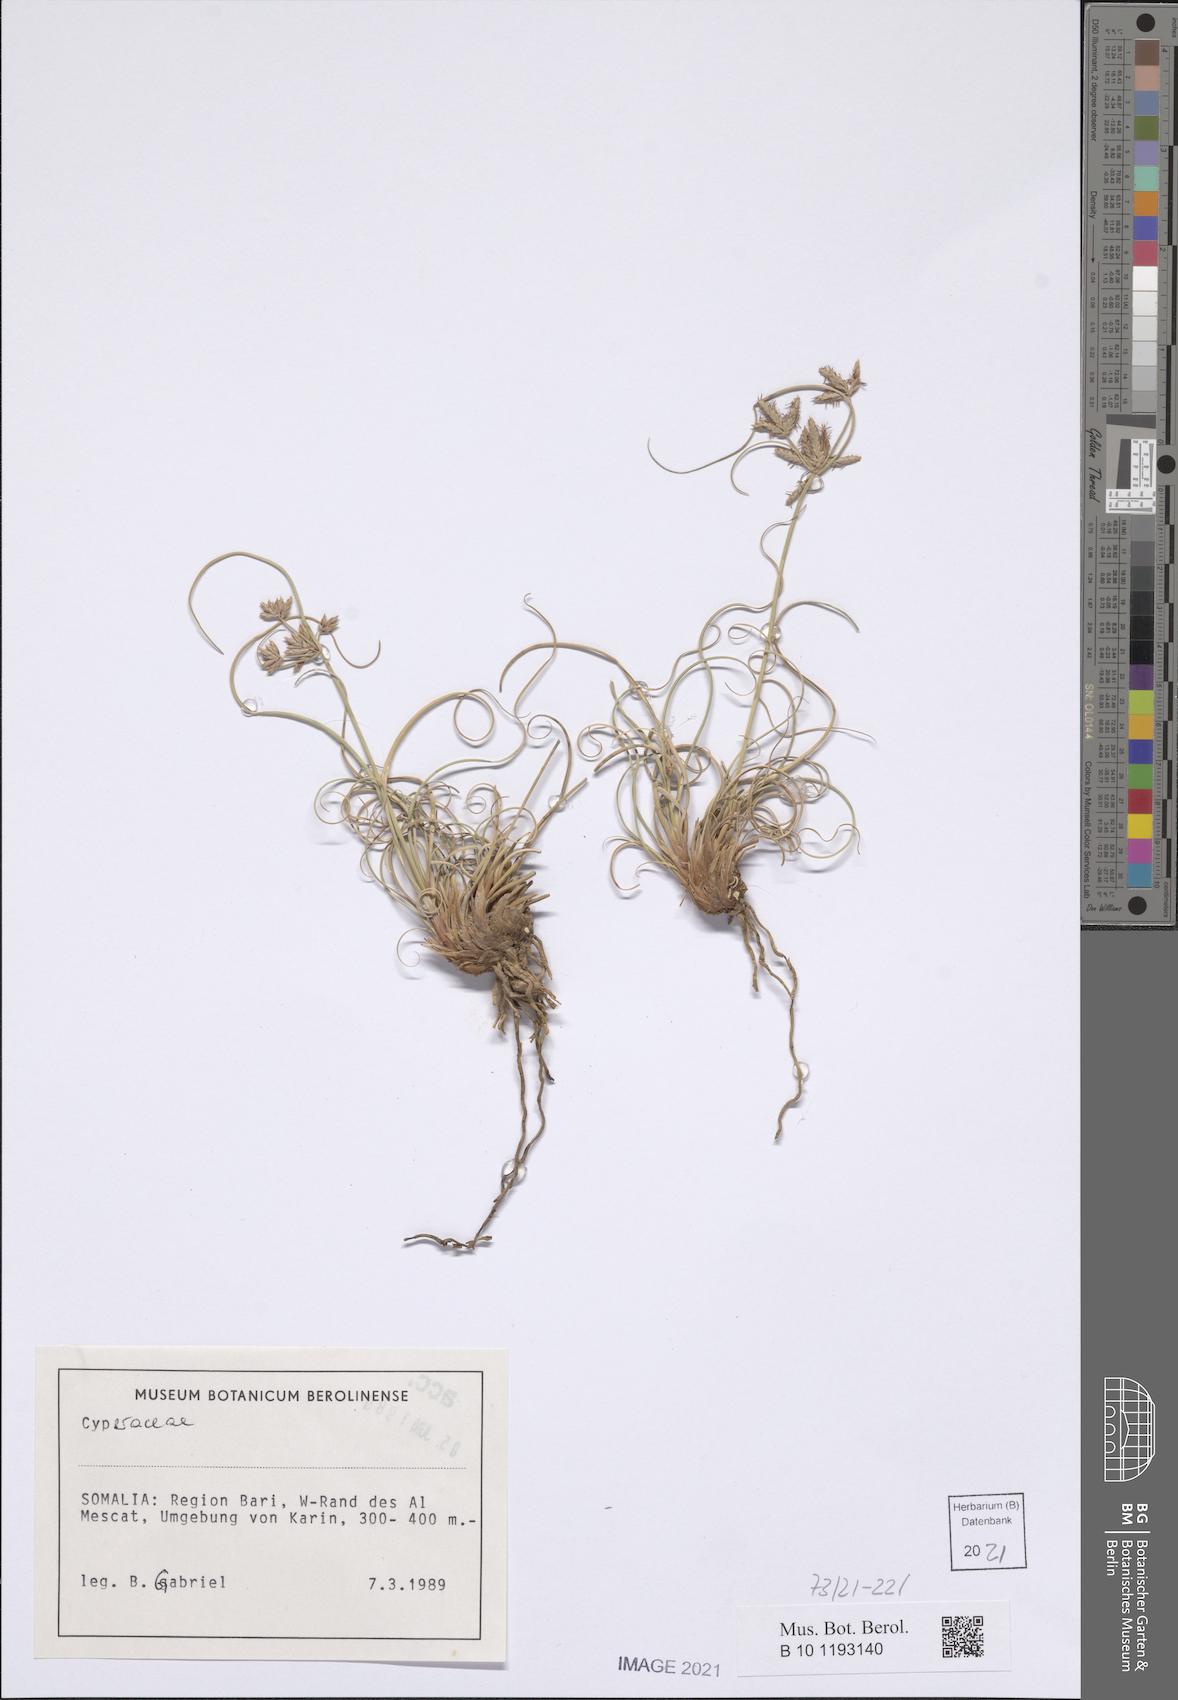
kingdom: Plantae
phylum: Tracheophyta
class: Liliopsida
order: Poales
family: Cyperaceae
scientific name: Cyperaceae
